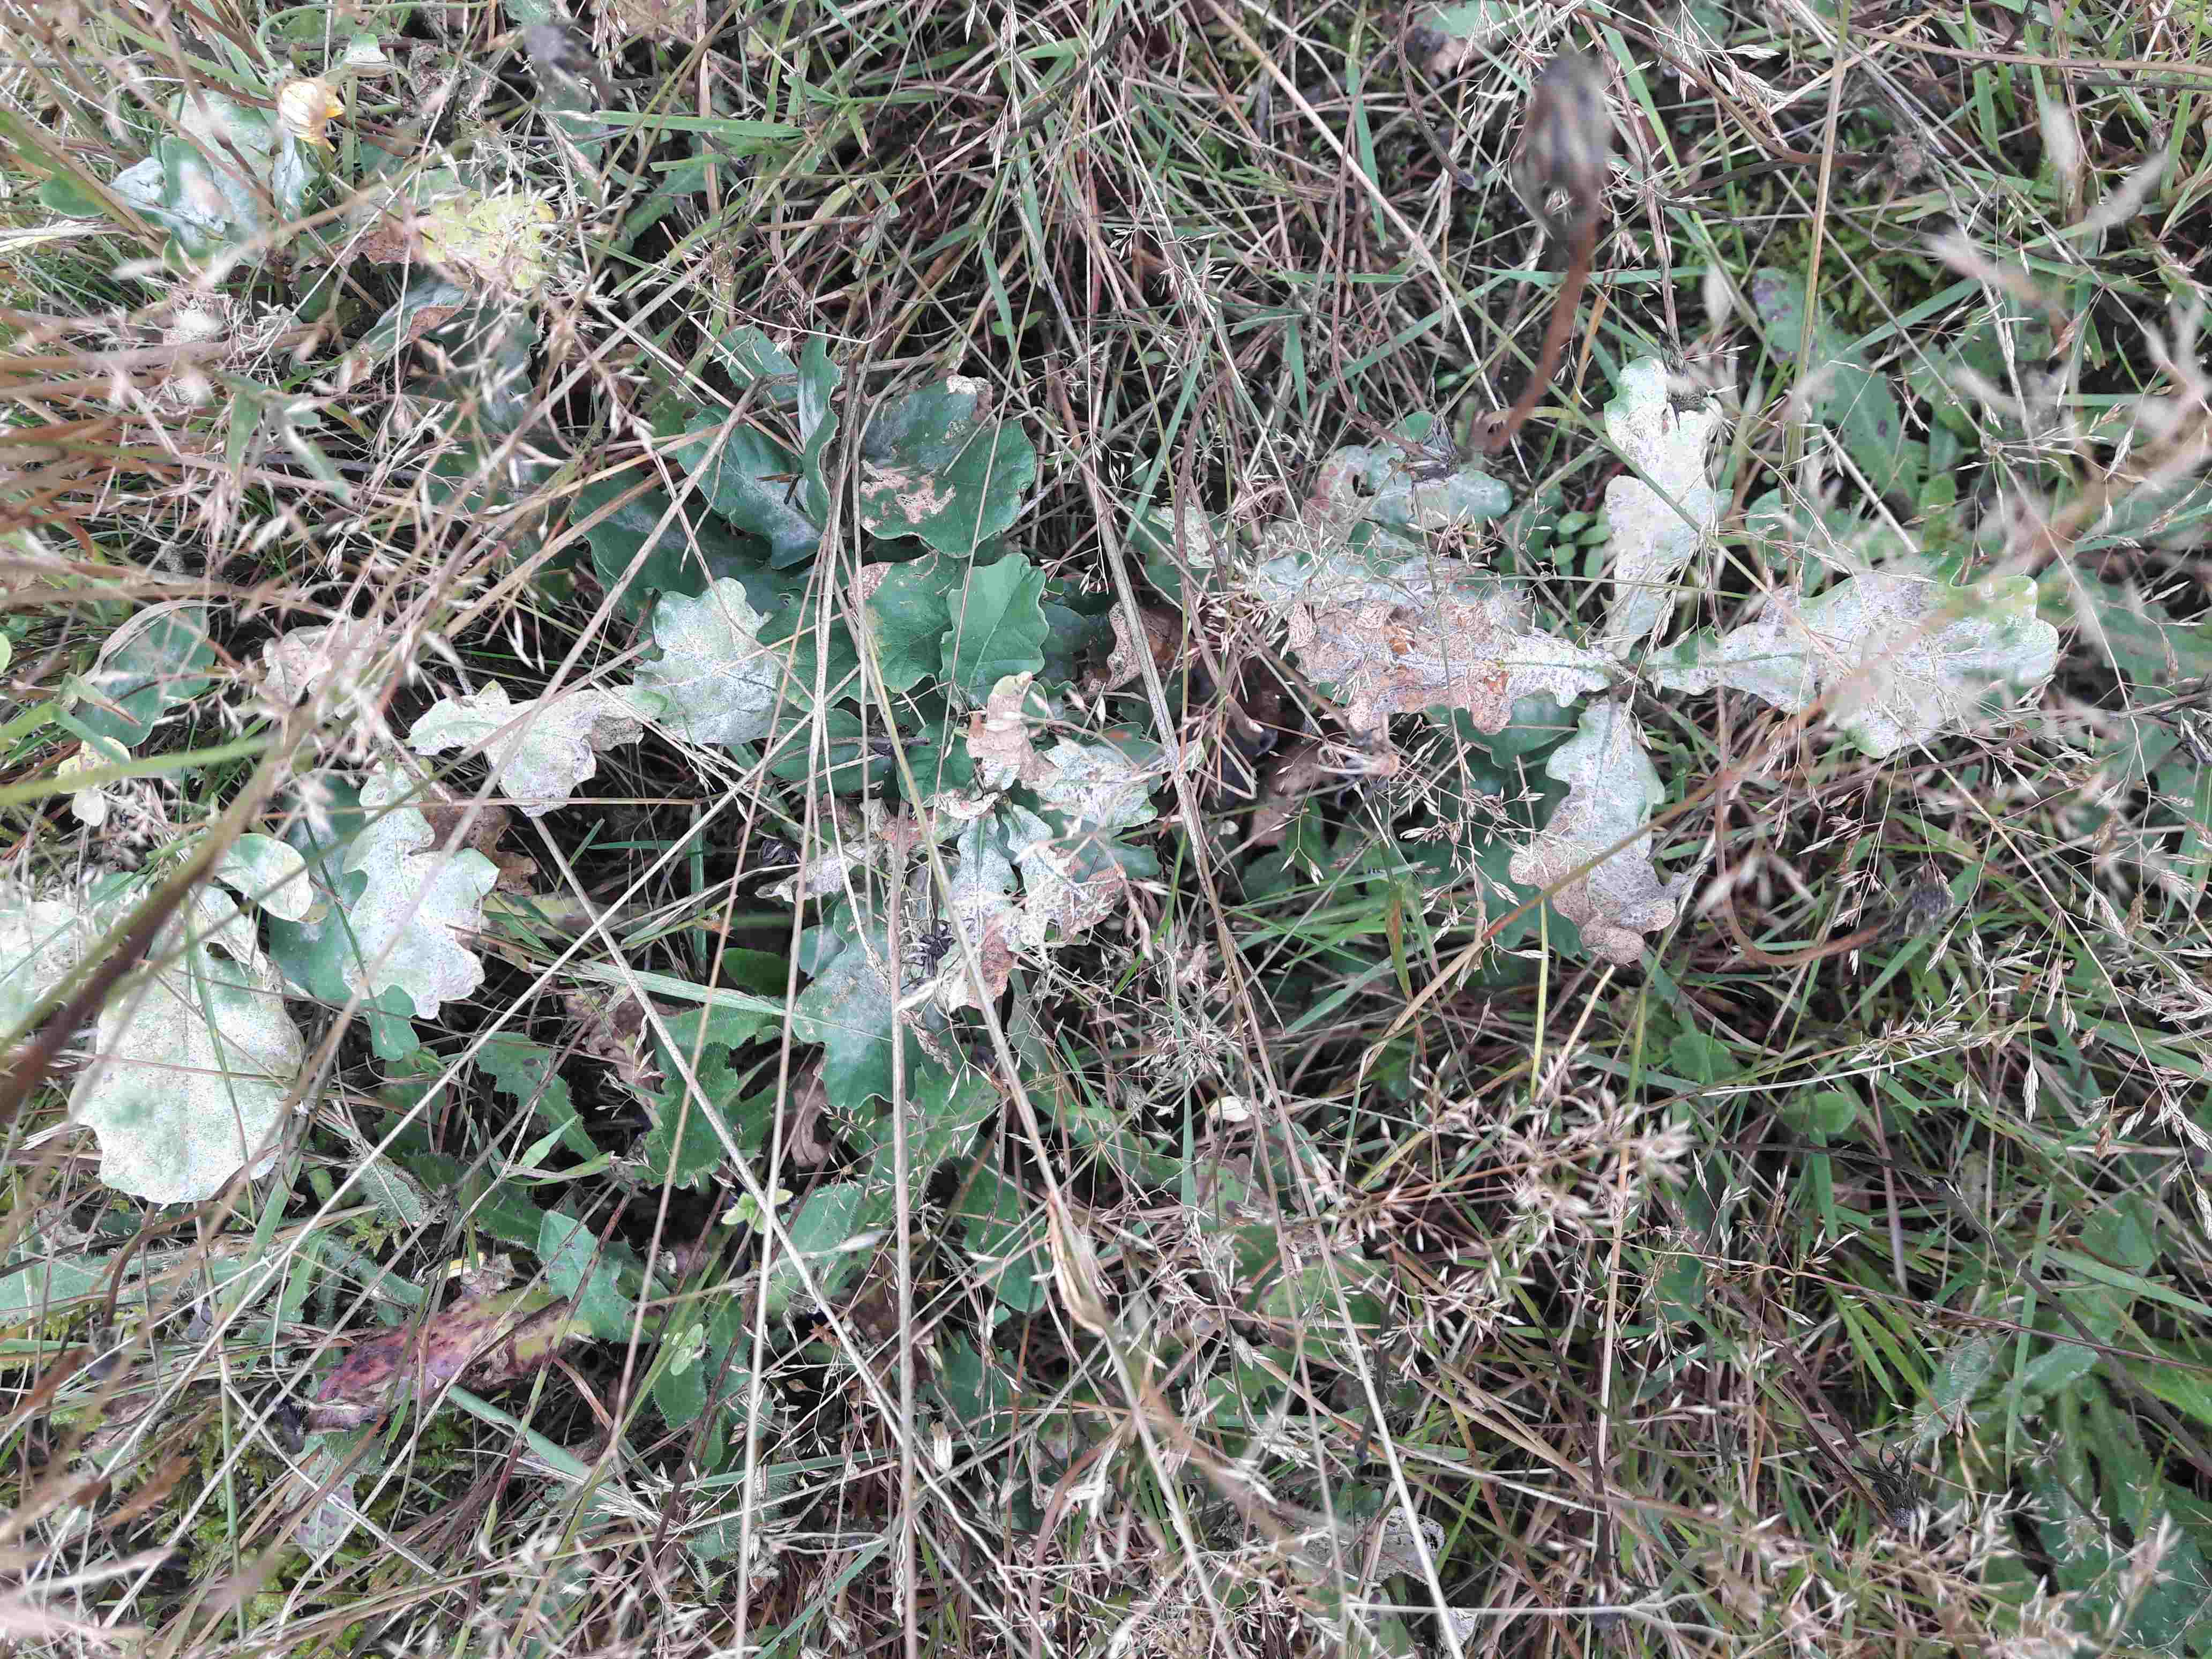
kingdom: Fungi
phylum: Ascomycota
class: Leotiomycetes
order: Helotiales
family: Erysiphaceae
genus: Erysiphe
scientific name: Erysiphe alphitoides
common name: ege-meldug
